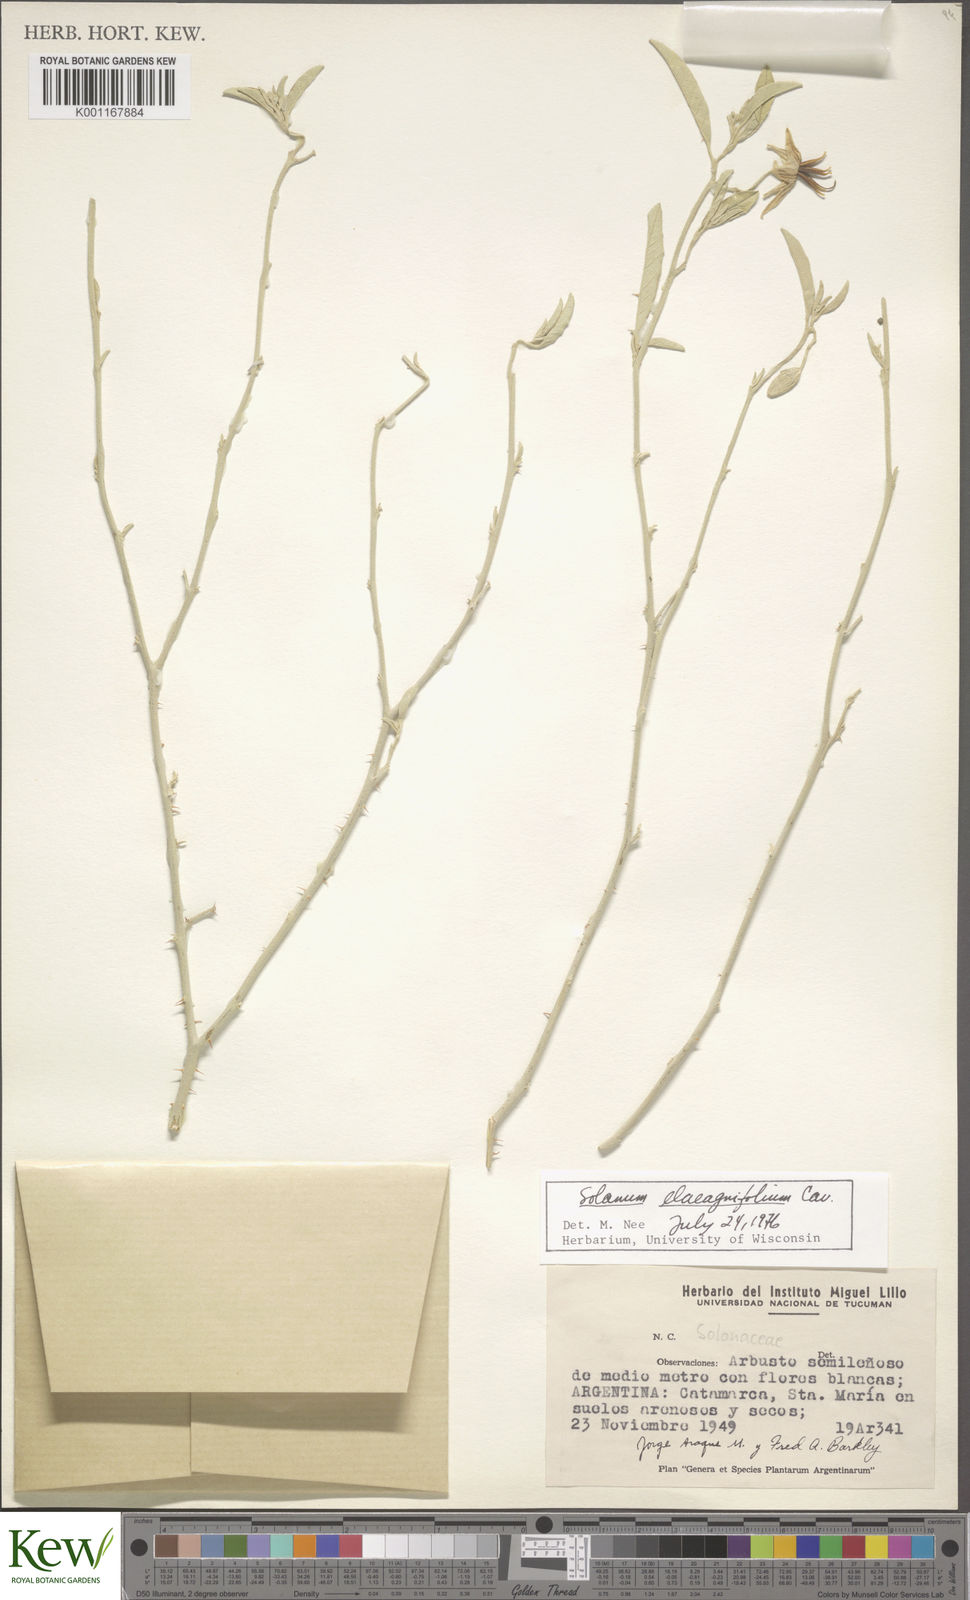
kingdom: Plantae
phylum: Tracheophyta
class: Magnoliopsida
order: Solanales
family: Solanaceae
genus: Solanum
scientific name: Solanum elaeagnifolium
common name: Silverleaf nightshade
